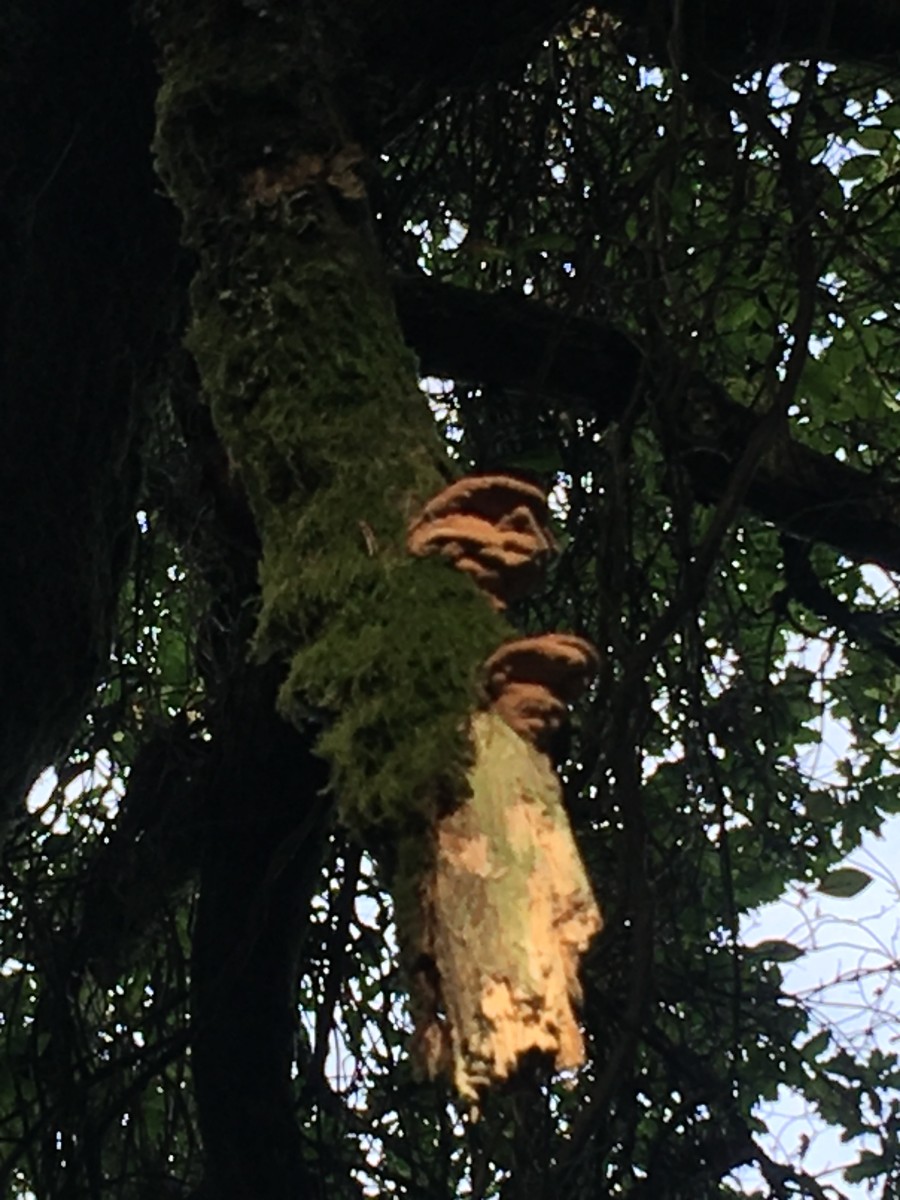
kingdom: Fungi
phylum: Basidiomycota
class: Agaricomycetes
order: Polyporales
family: Phanerochaetaceae
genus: Hapalopilus
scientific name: Hapalopilus rutilans
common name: rødlig okkerporesvamp
